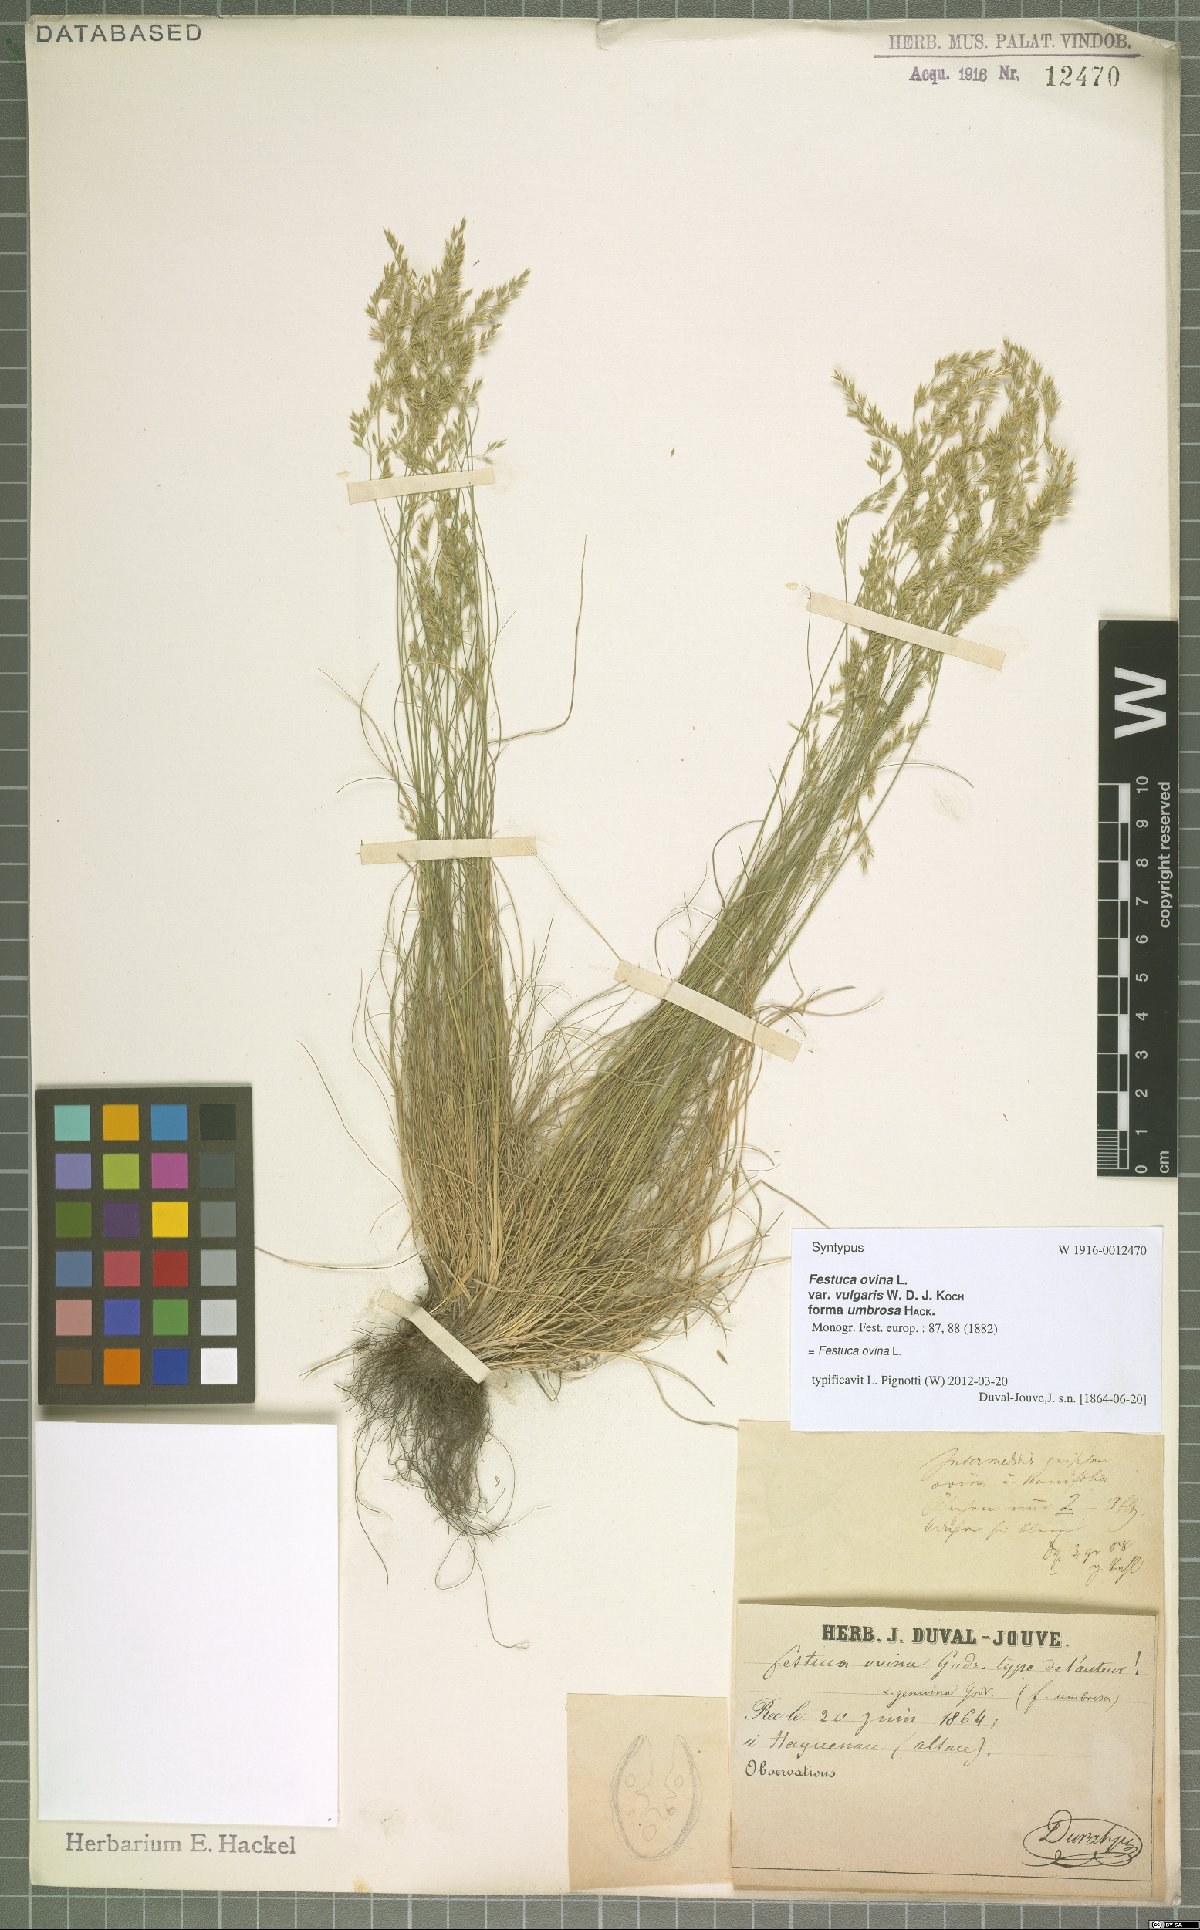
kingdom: Plantae
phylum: Tracheophyta
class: Liliopsida
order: Poales
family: Poaceae
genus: Festuca
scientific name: Festuca ovina
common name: Sheep fescue
